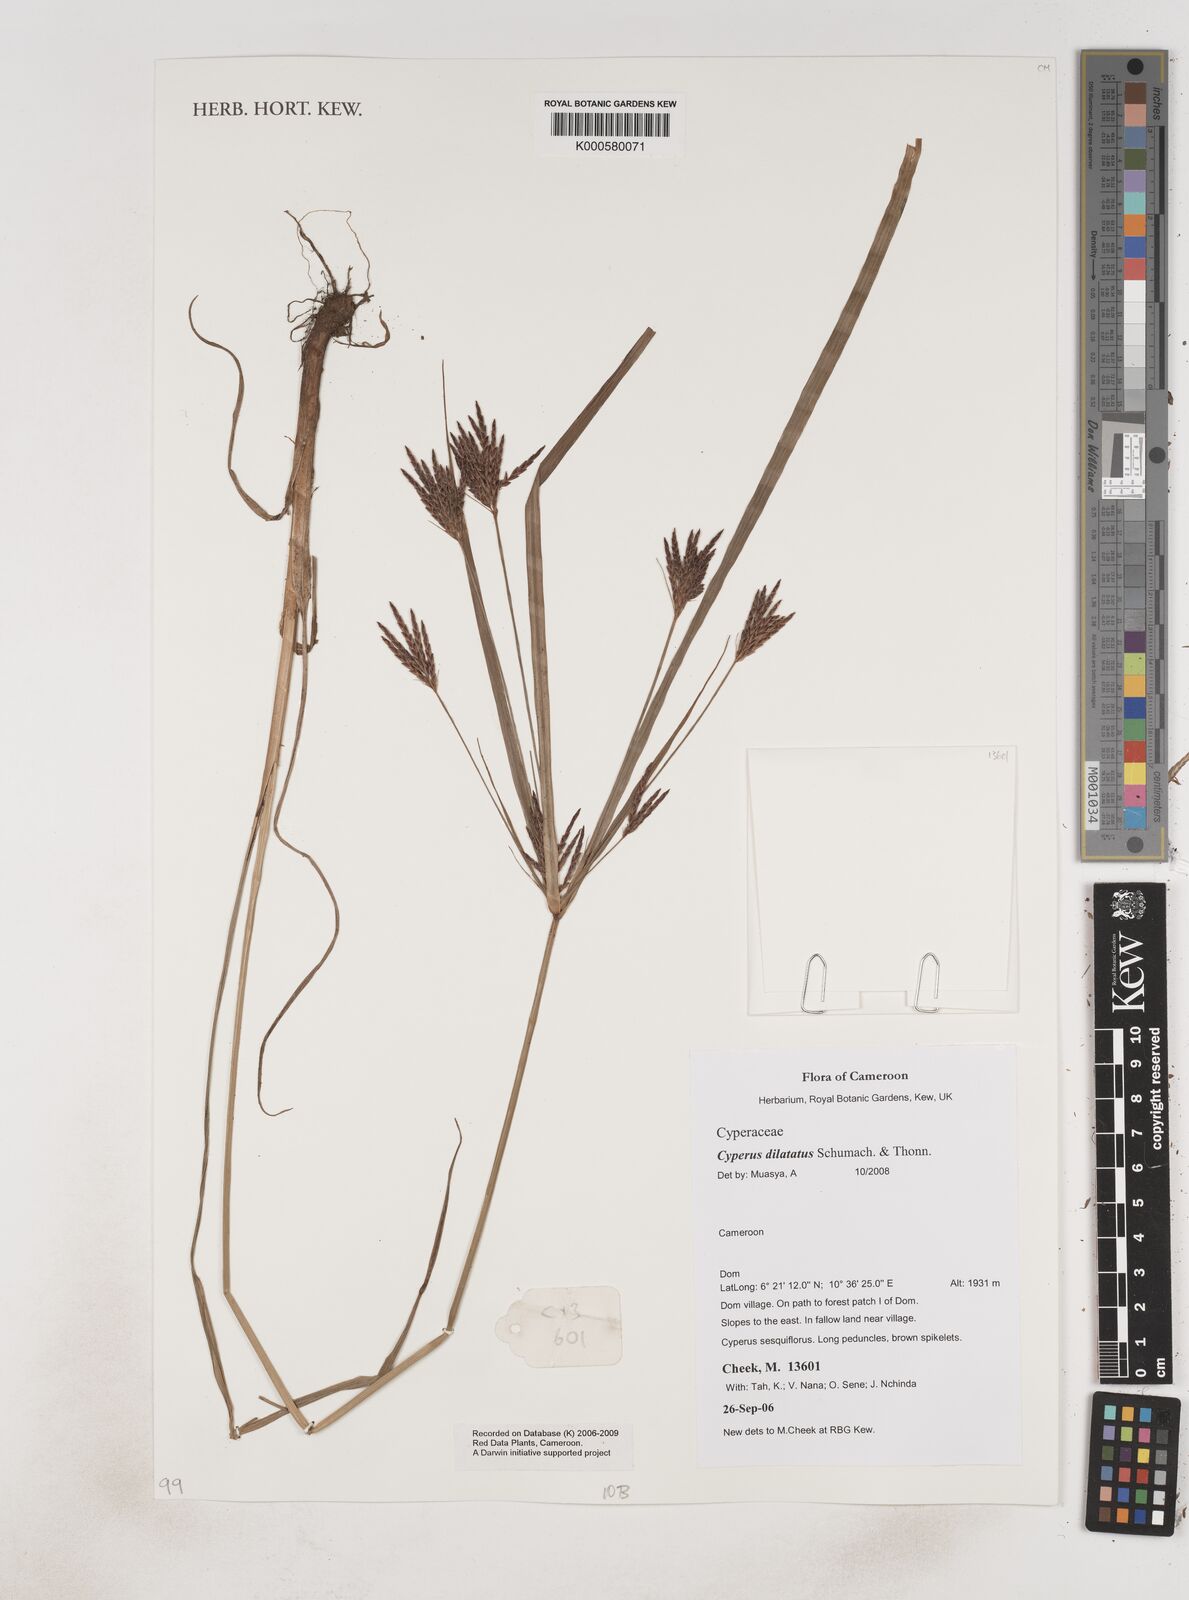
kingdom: Plantae
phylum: Tracheophyta
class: Liliopsida
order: Poales
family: Cyperaceae
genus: Cyperus
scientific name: Cyperus dilatatus
